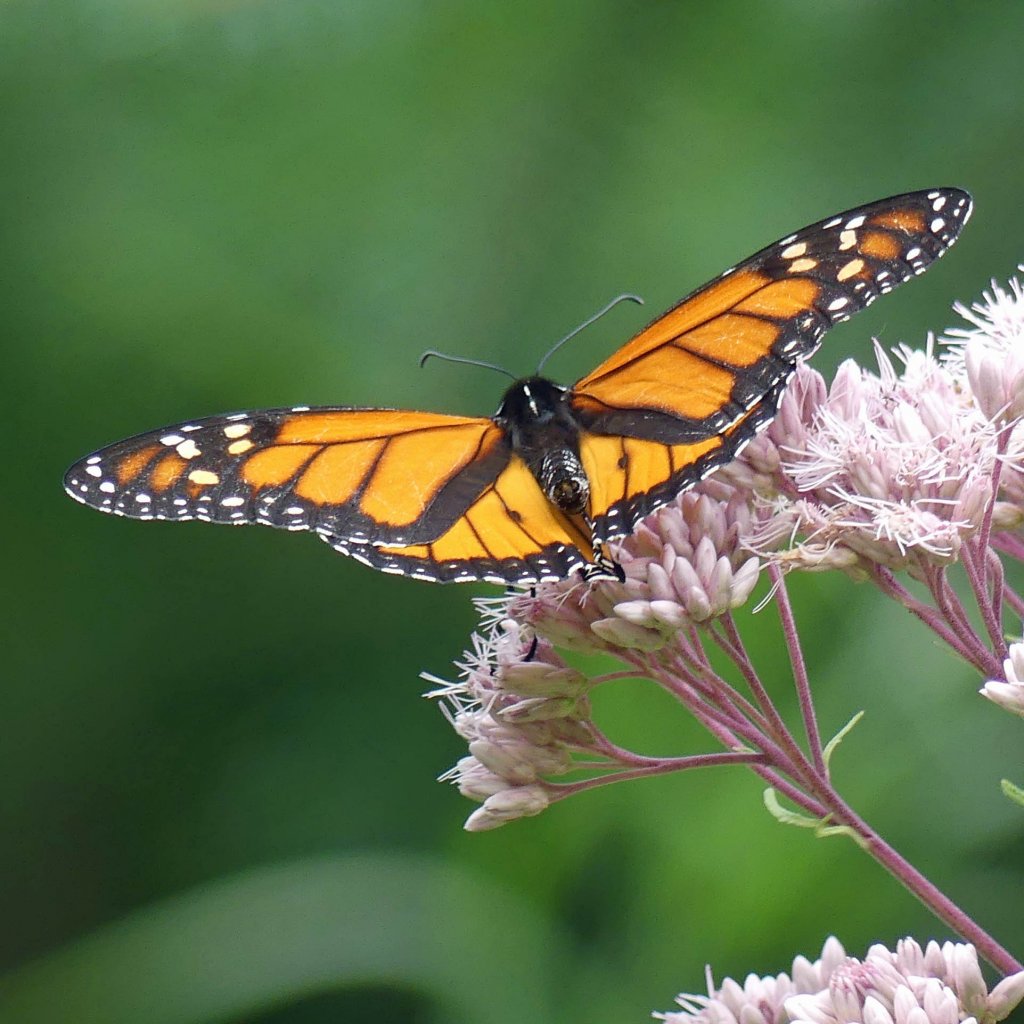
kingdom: Animalia
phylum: Arthropoda
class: Insecta
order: Lepidoptera
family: Nymphalidae
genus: Danaus
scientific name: Danaus plexippus
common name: Monarch
